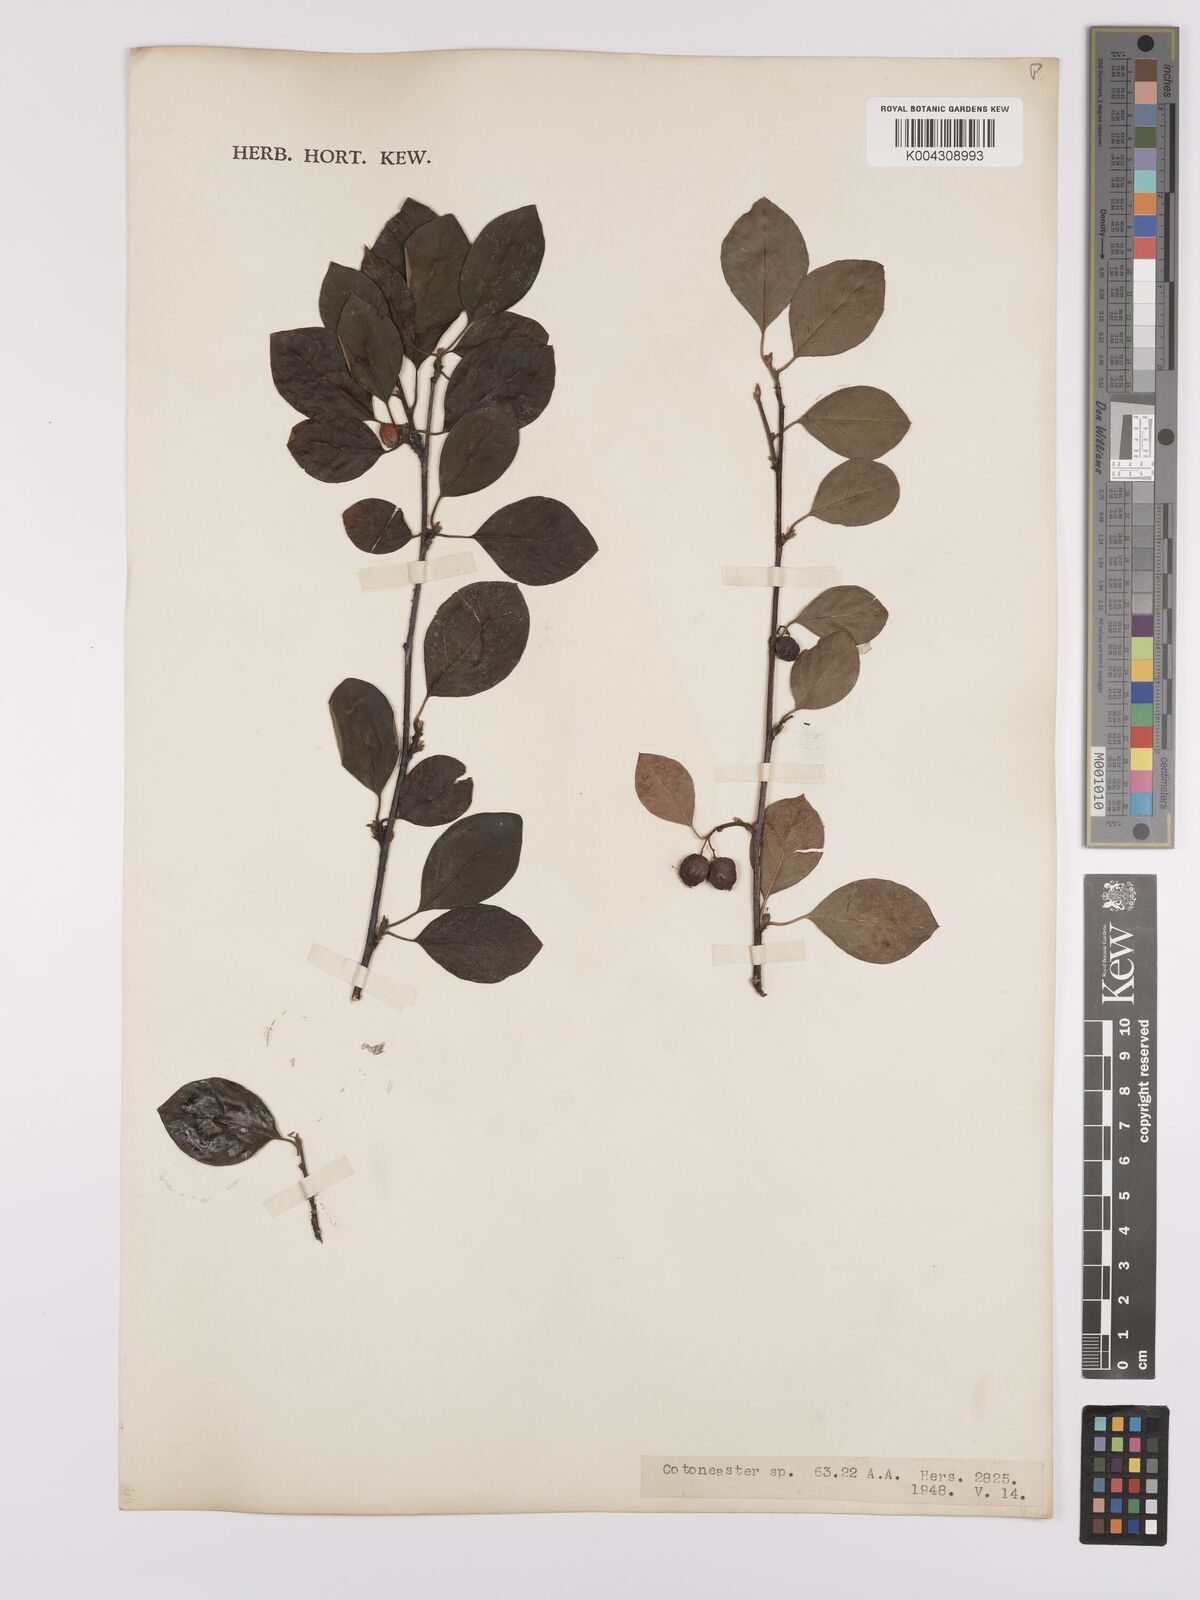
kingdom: Plantae
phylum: Tracheophyta
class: Magnoliopsida
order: Rosales
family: Rosaceae
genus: Cotoneaster
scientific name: Cotoneaster
